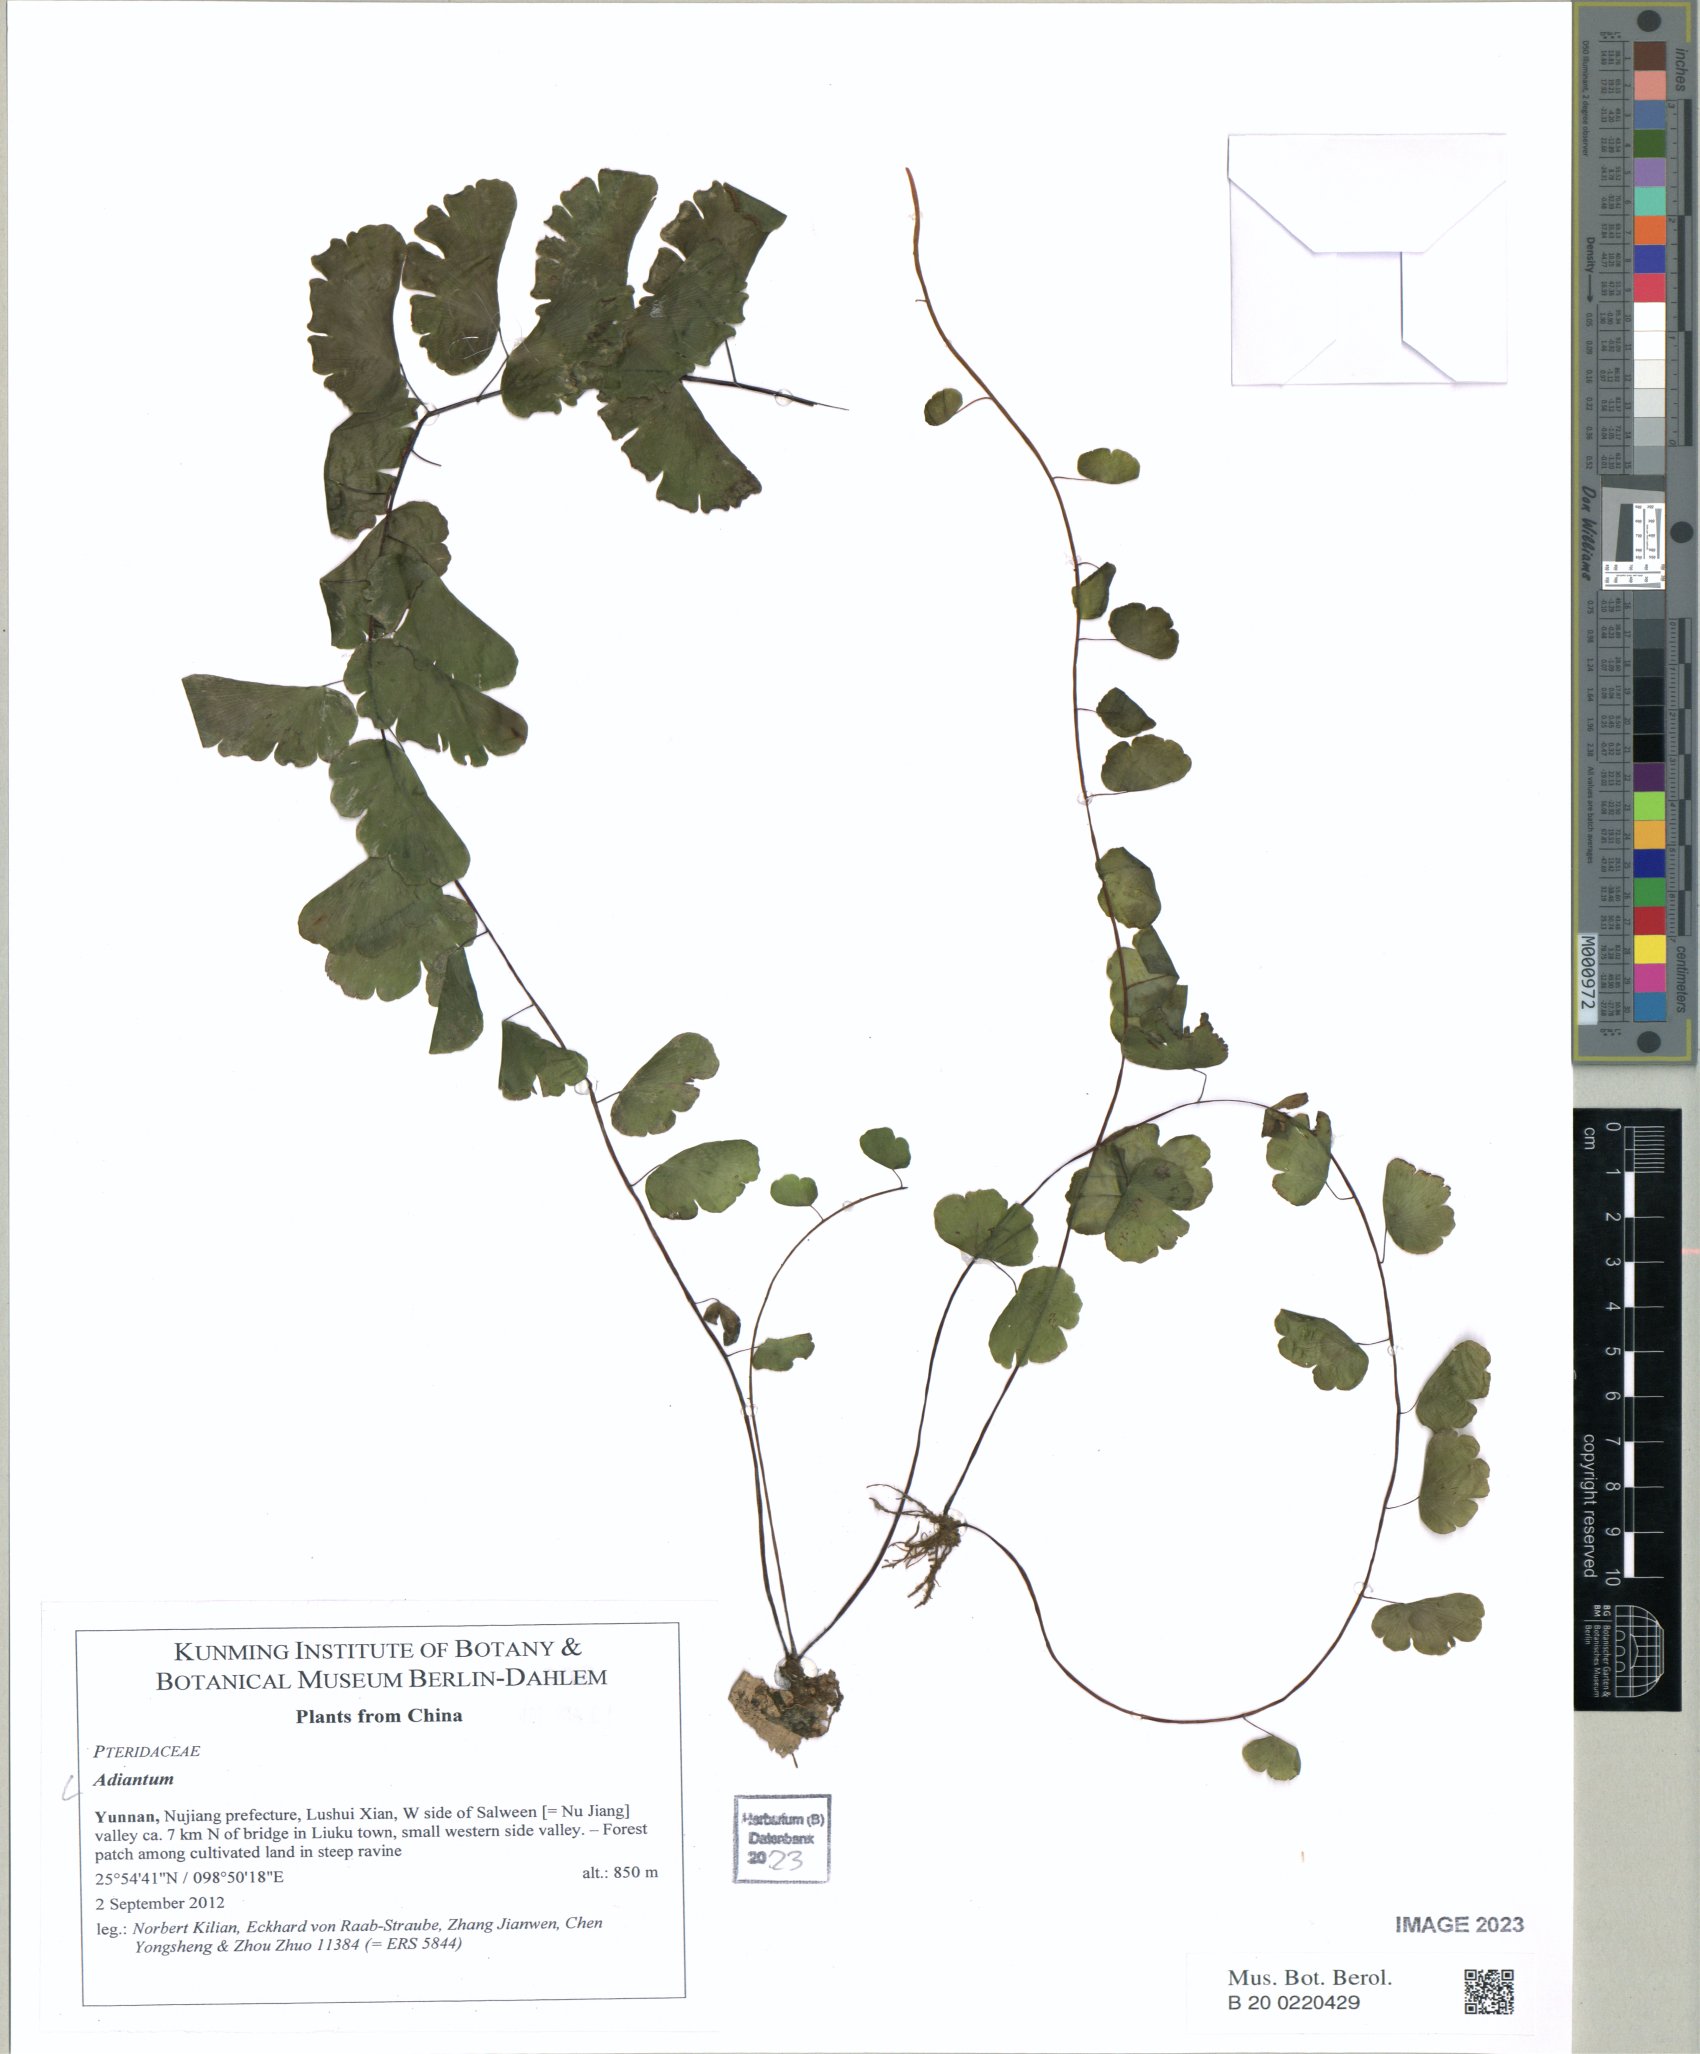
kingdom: Plantae
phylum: Tracheophyta
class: Polypodiopsida
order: Polypodiales
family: Pteridaceae
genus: Adiantum
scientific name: Adiantum
